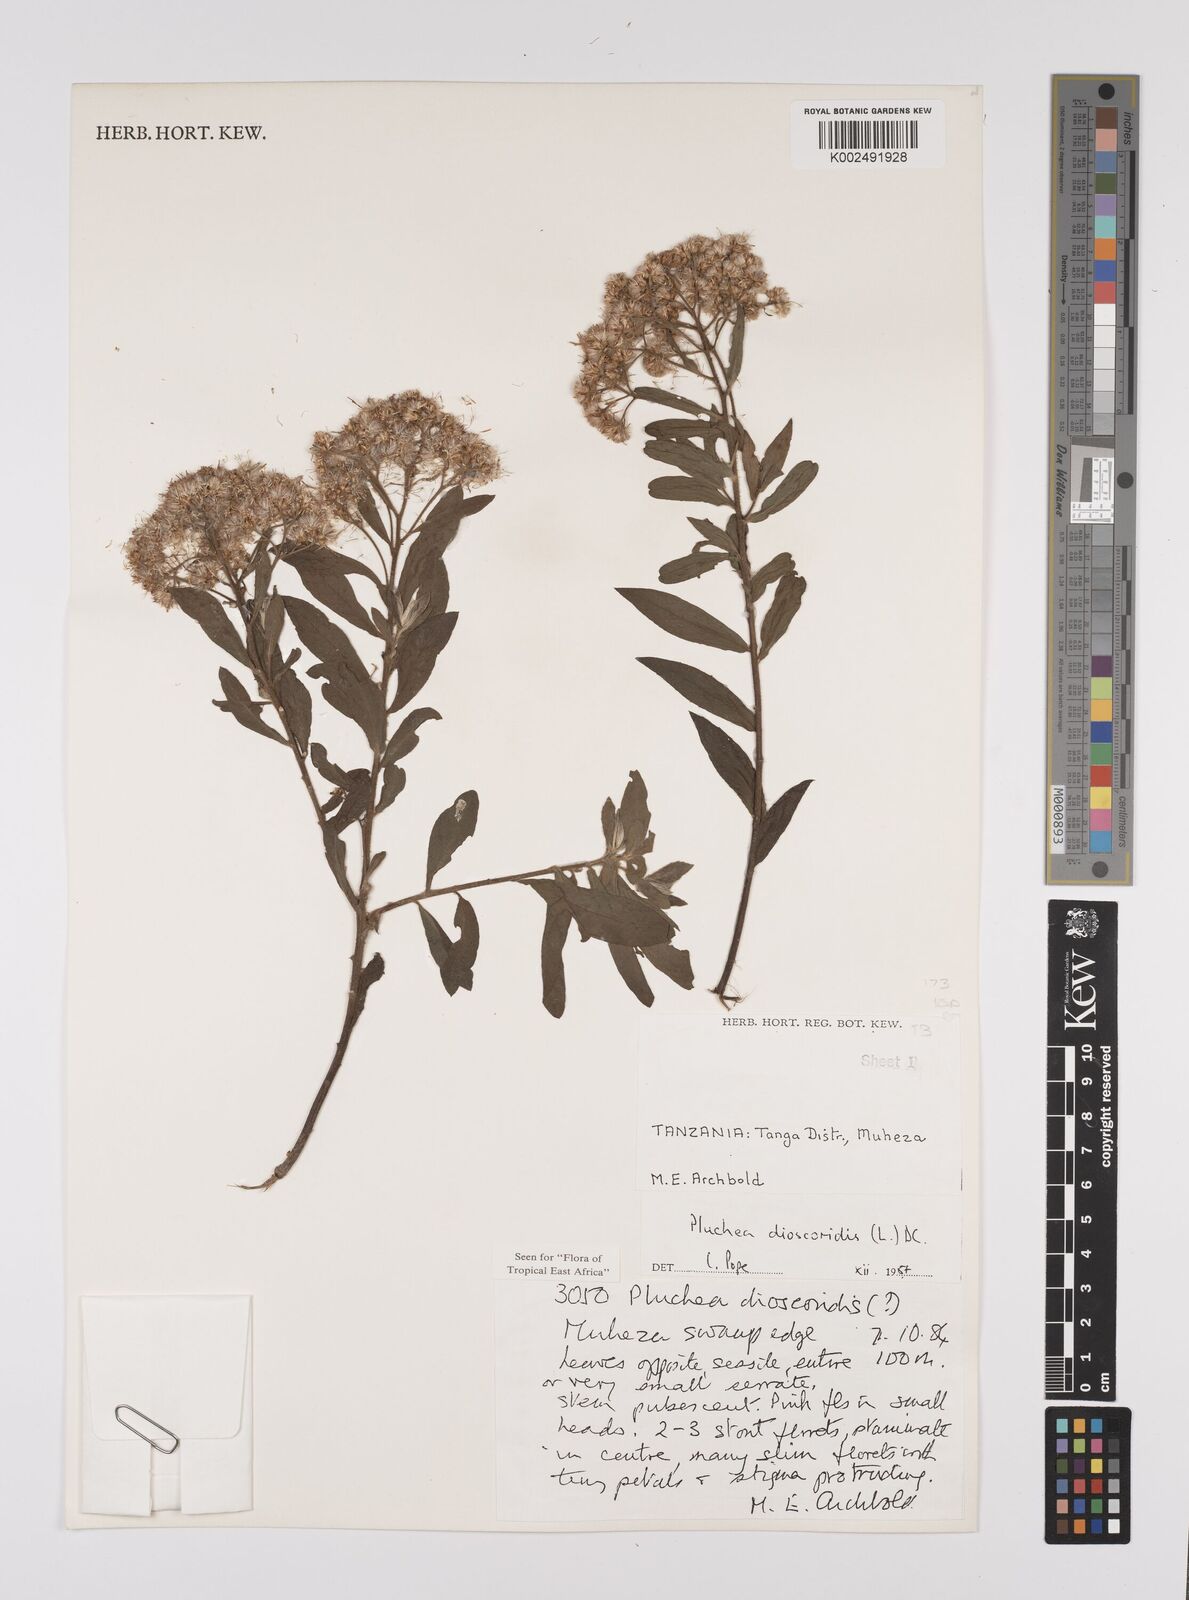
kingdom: Plantae
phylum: Tracheophyta
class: Magnoliopsida
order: Asterales
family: Asteraceae
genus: Pluchea
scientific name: Pluchea dioscoridis
